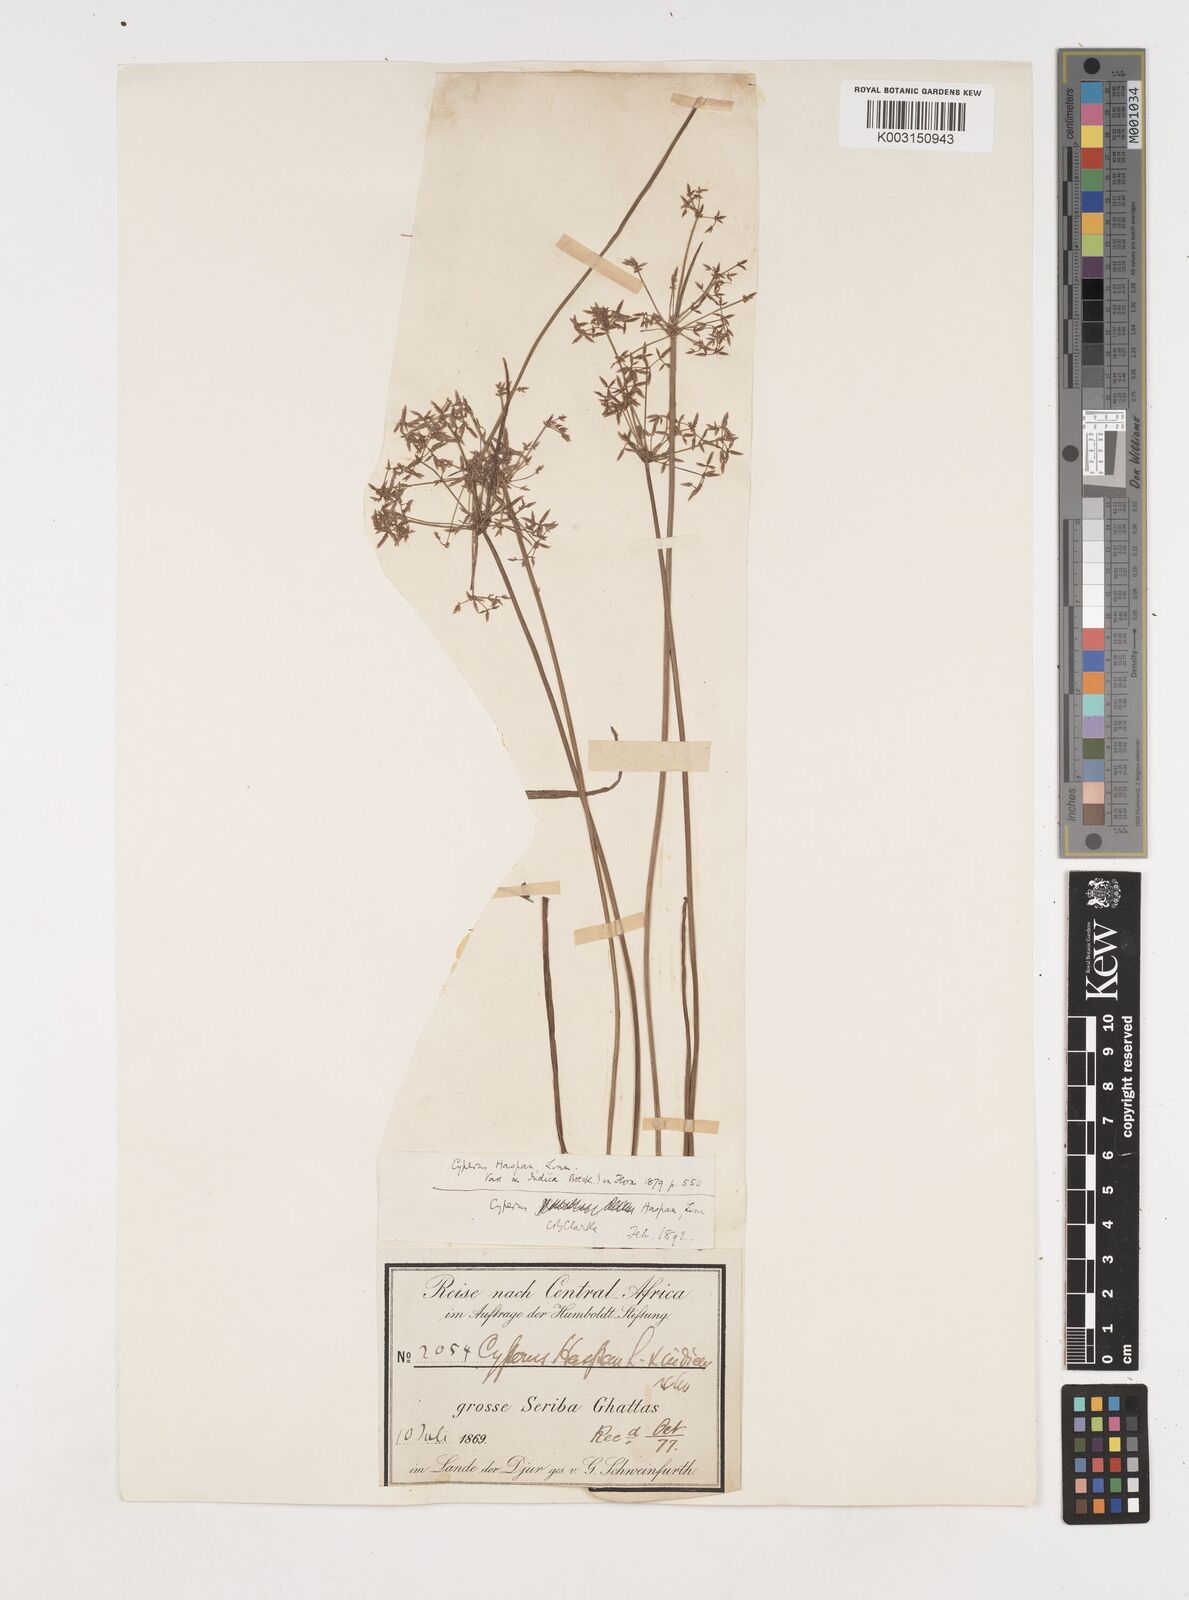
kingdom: Plantae
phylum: Tracheophyta
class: Liliopsida
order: Poales
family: Cyperaceae
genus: Cyperus
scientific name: Cyperus haspan
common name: Haspan flatsedge
